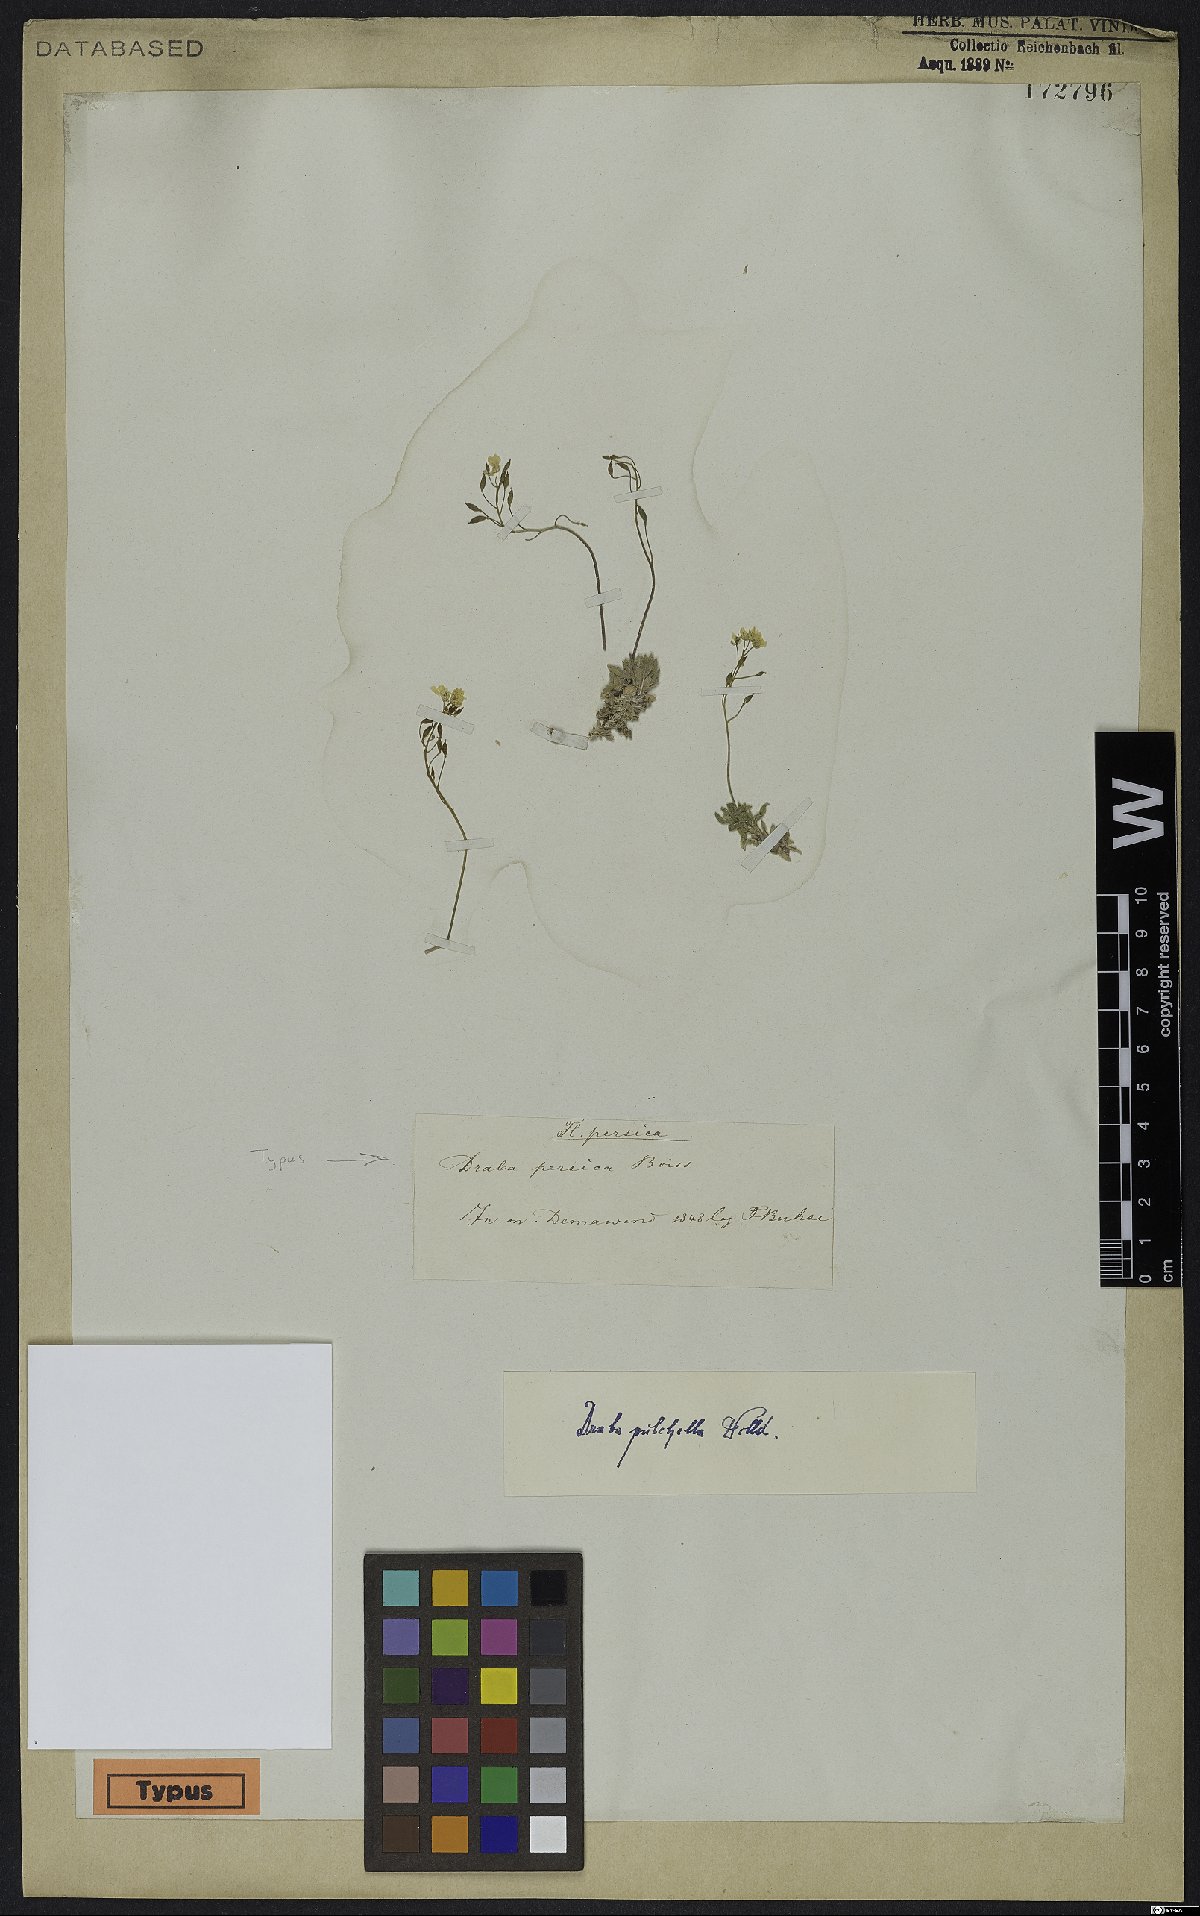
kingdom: Plantae
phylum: Tracheophyta
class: Magnoliopsida
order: Brassicales
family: Brassicaceae
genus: Draba
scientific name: Draba pulchella
